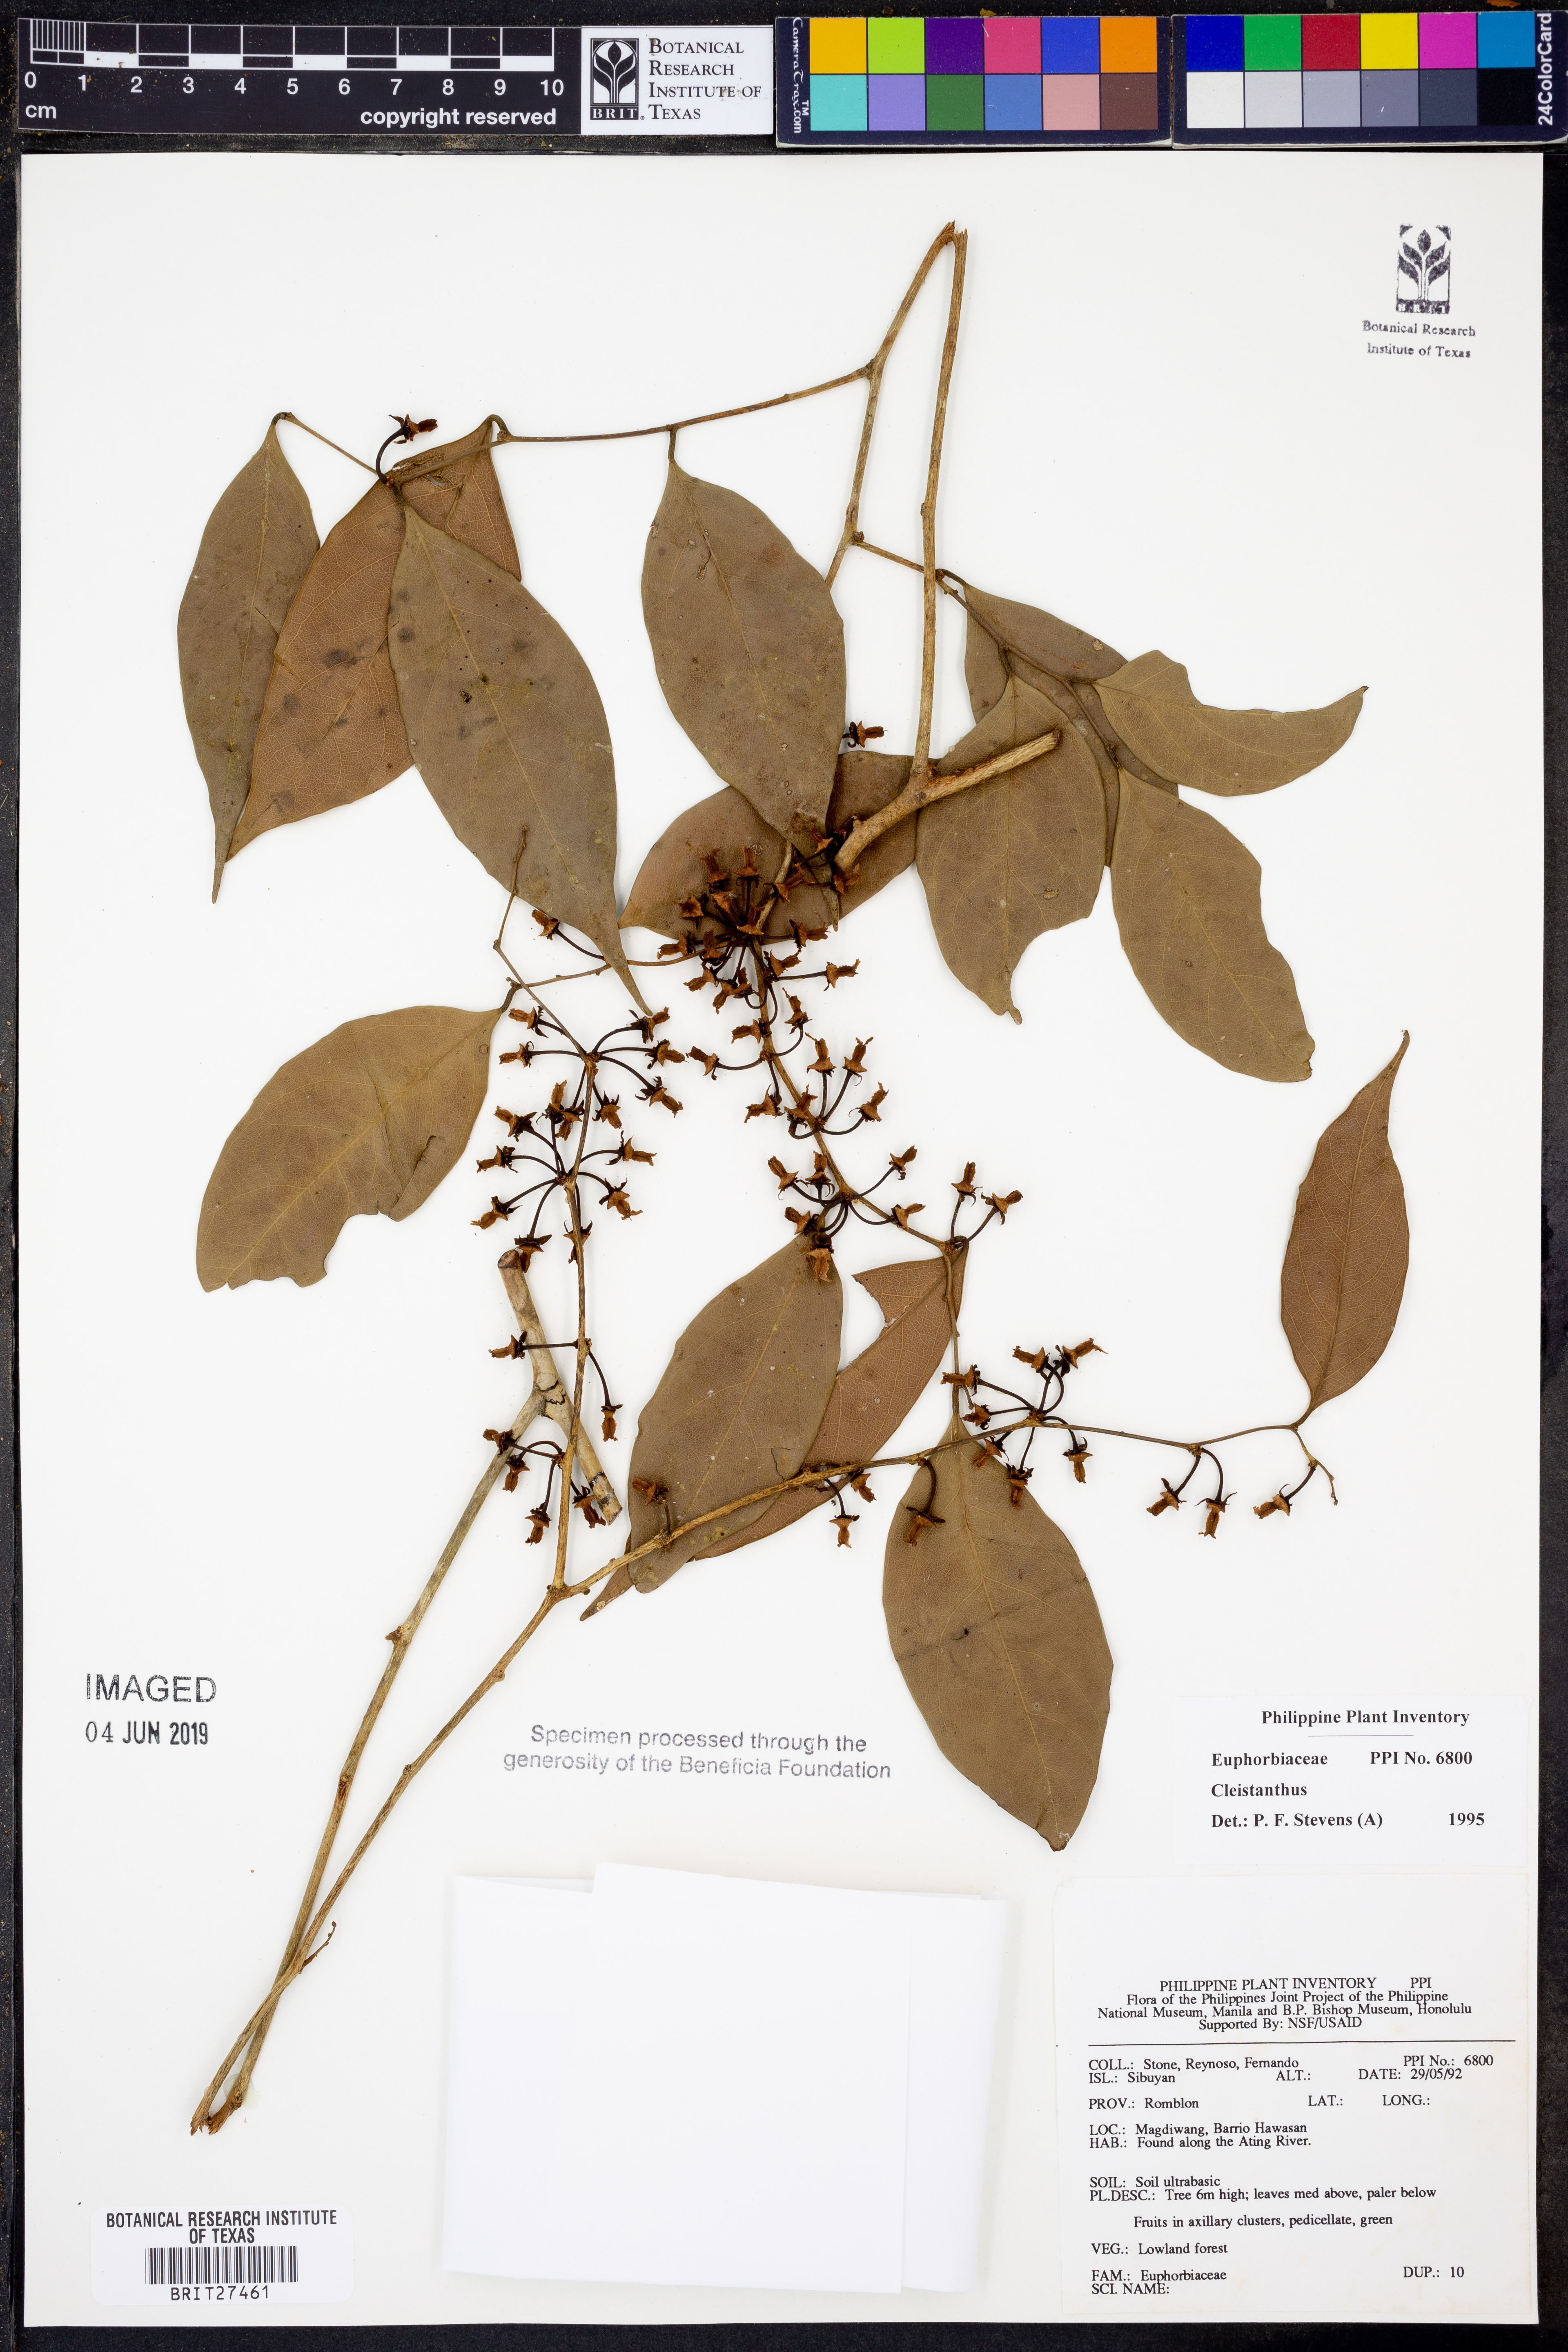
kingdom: Plantae
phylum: Tracheophyta
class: Magnoliopsida
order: Malpighiales
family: Phyllanthaceae
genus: Cleistanthus
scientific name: Cleistanthus
